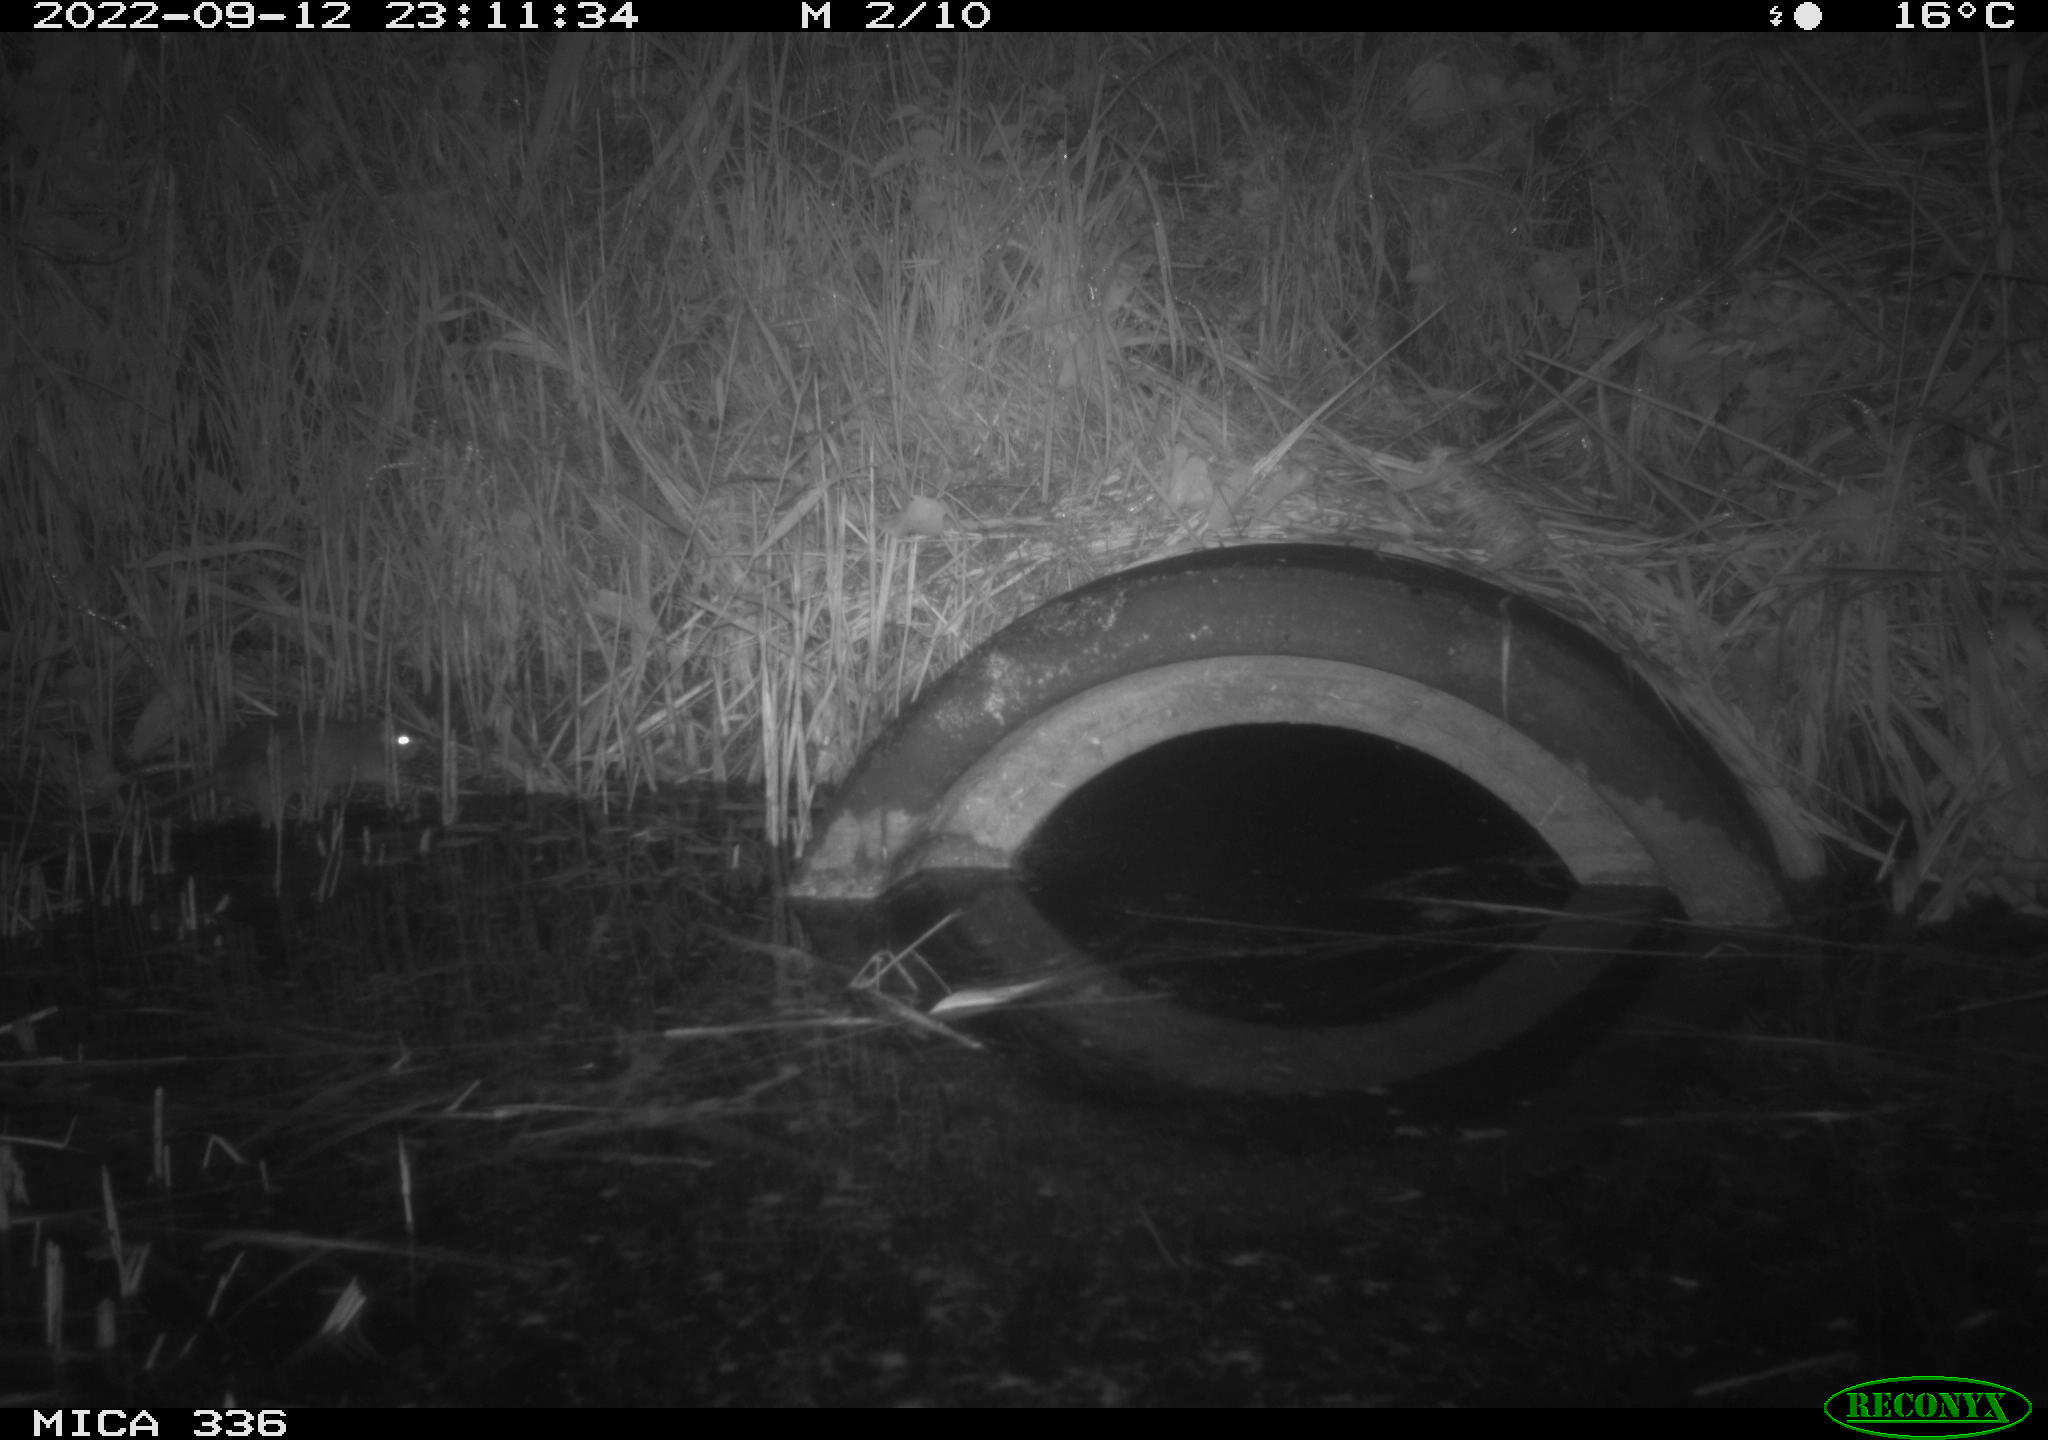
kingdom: Animalia
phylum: Chordata
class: Mammalia
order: Rodentia
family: Muridae
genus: Rattus
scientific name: Rattus norvegicus
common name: Brown rat
